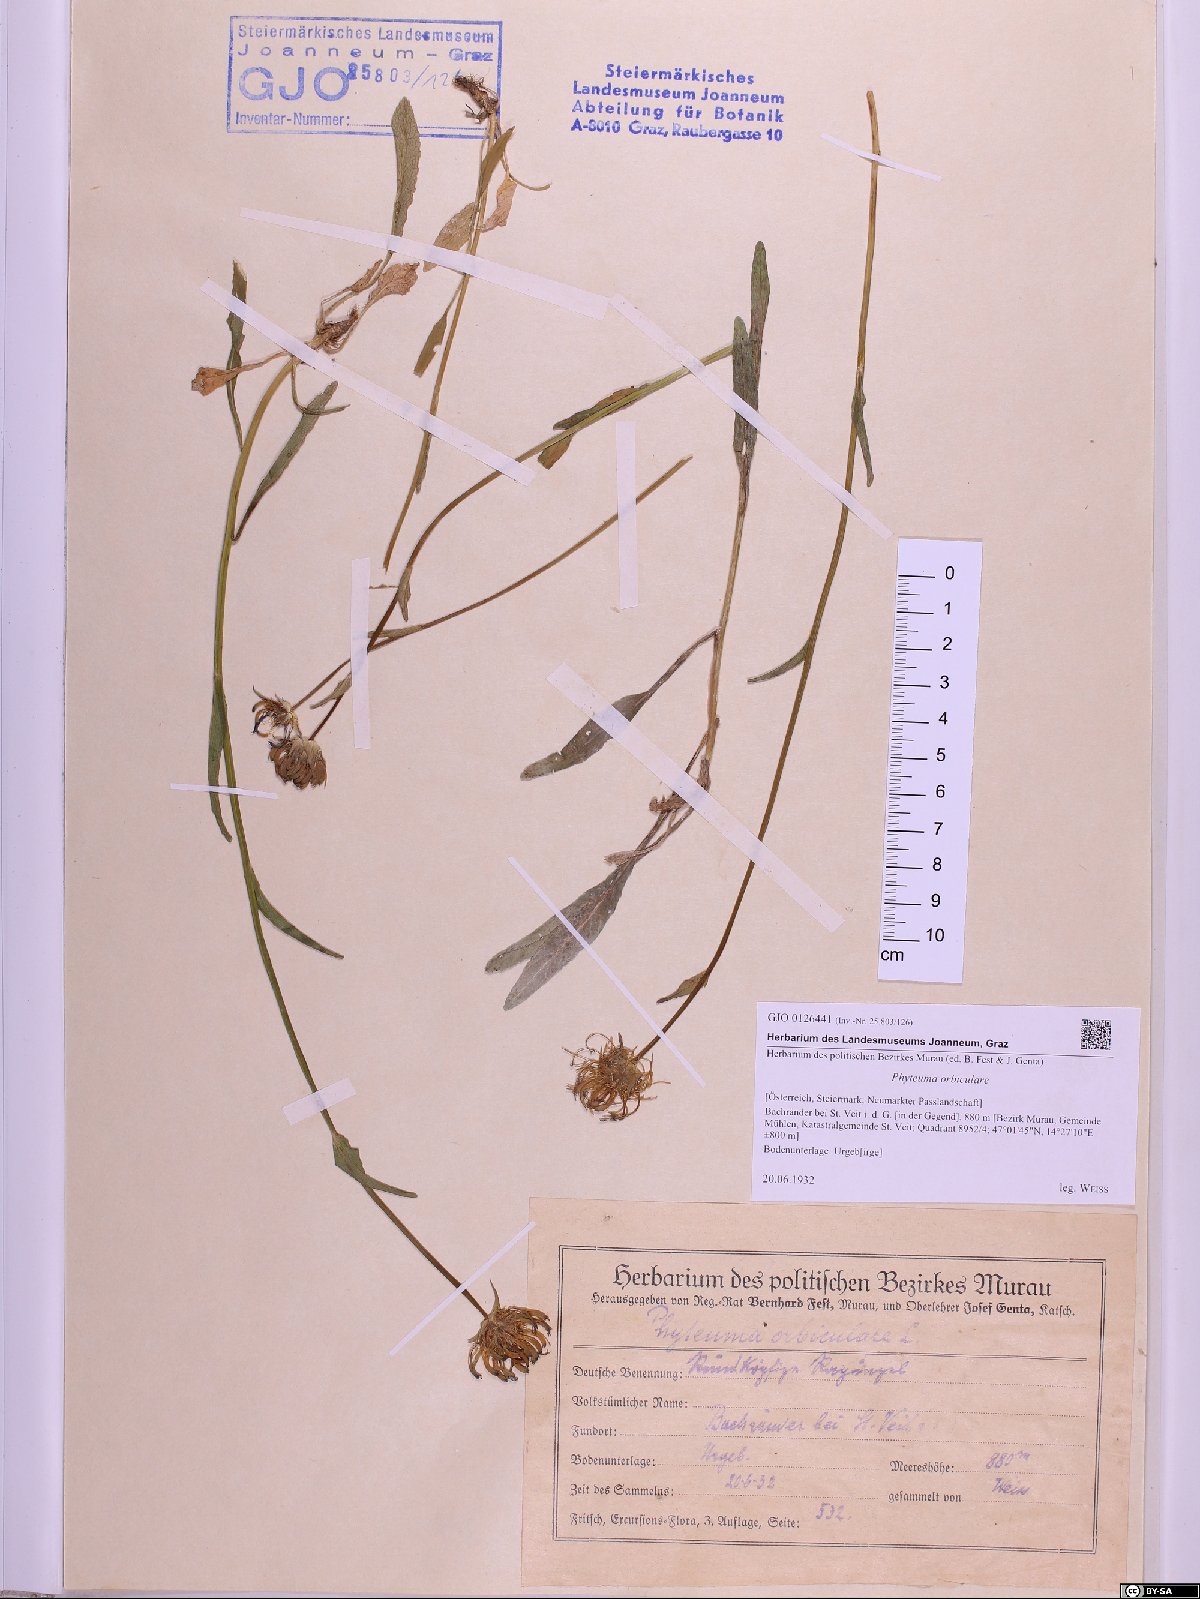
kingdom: Plantae
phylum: Tracheophyta
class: Magnoliopsida
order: Asterales
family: Campanulaceae
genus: Phyteuma
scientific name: Phyteuma orbiculare
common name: Round-headed rampion
